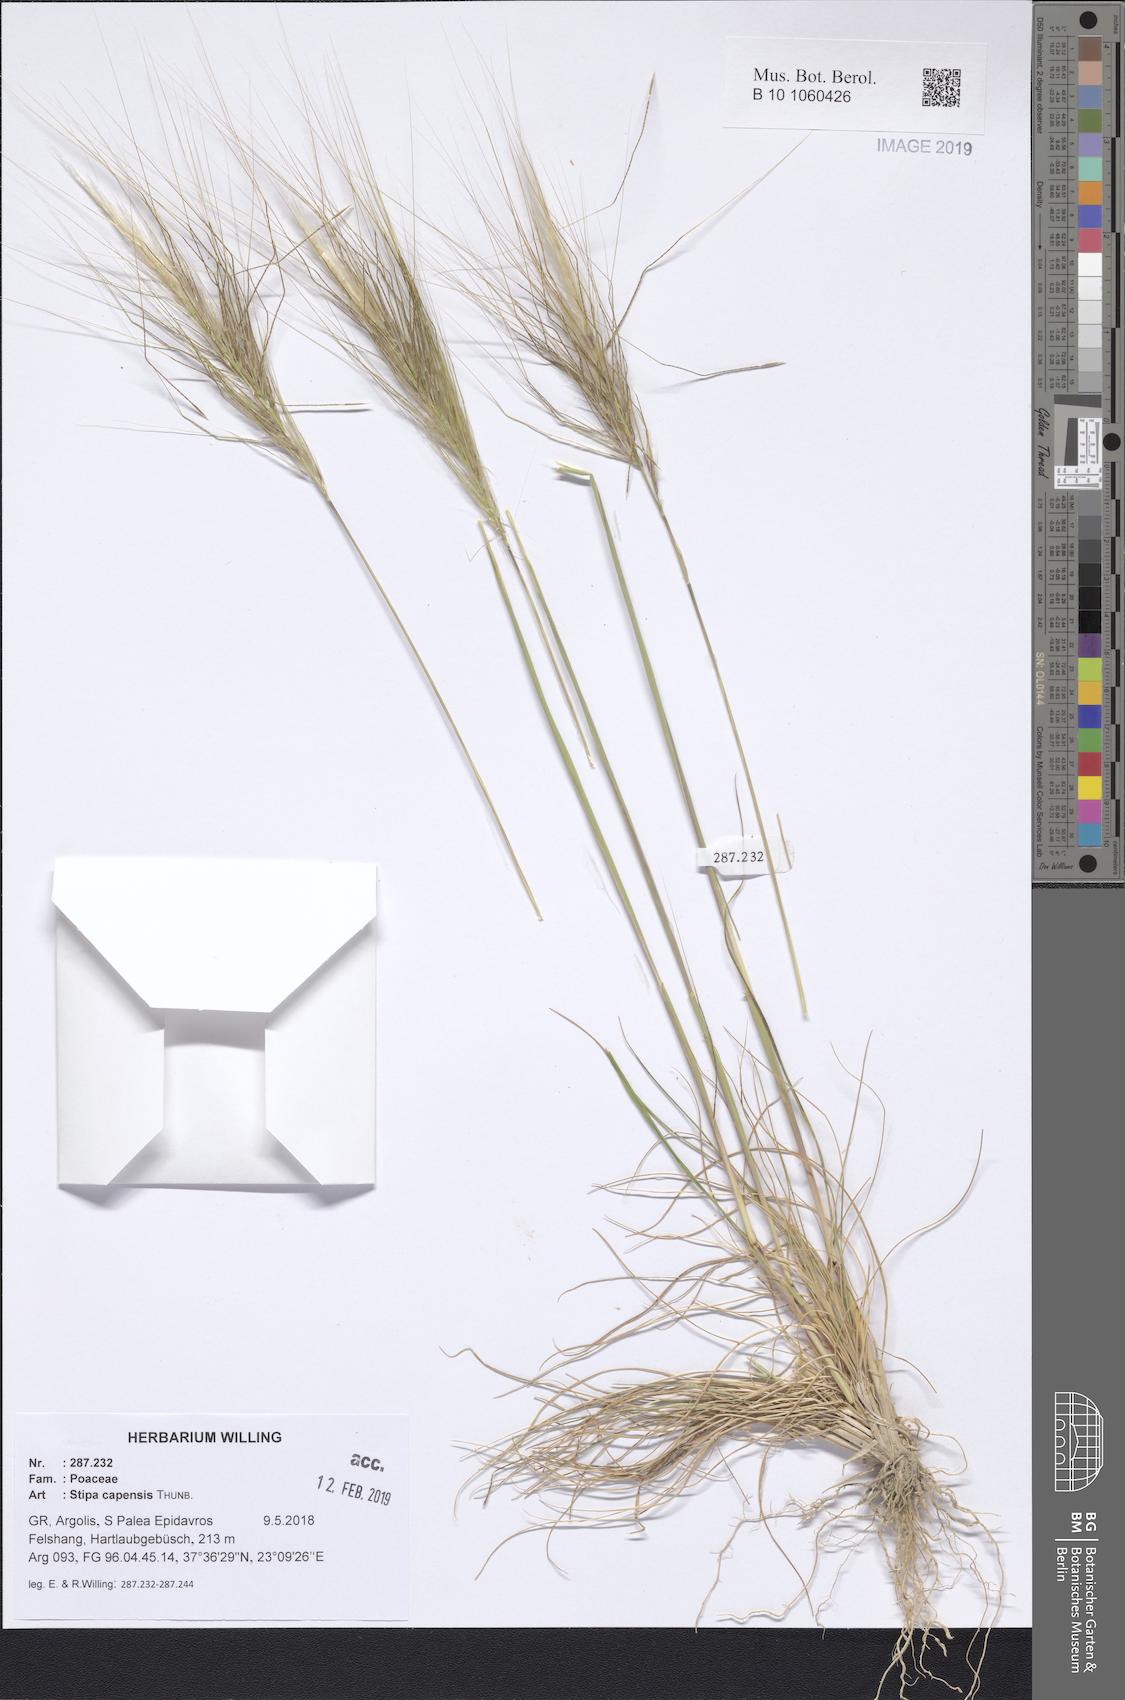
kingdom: Plantae
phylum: Tracheophyta
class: Liliopsida
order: Poales
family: Poaceae
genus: Stipellula
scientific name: Stipellula capensis
